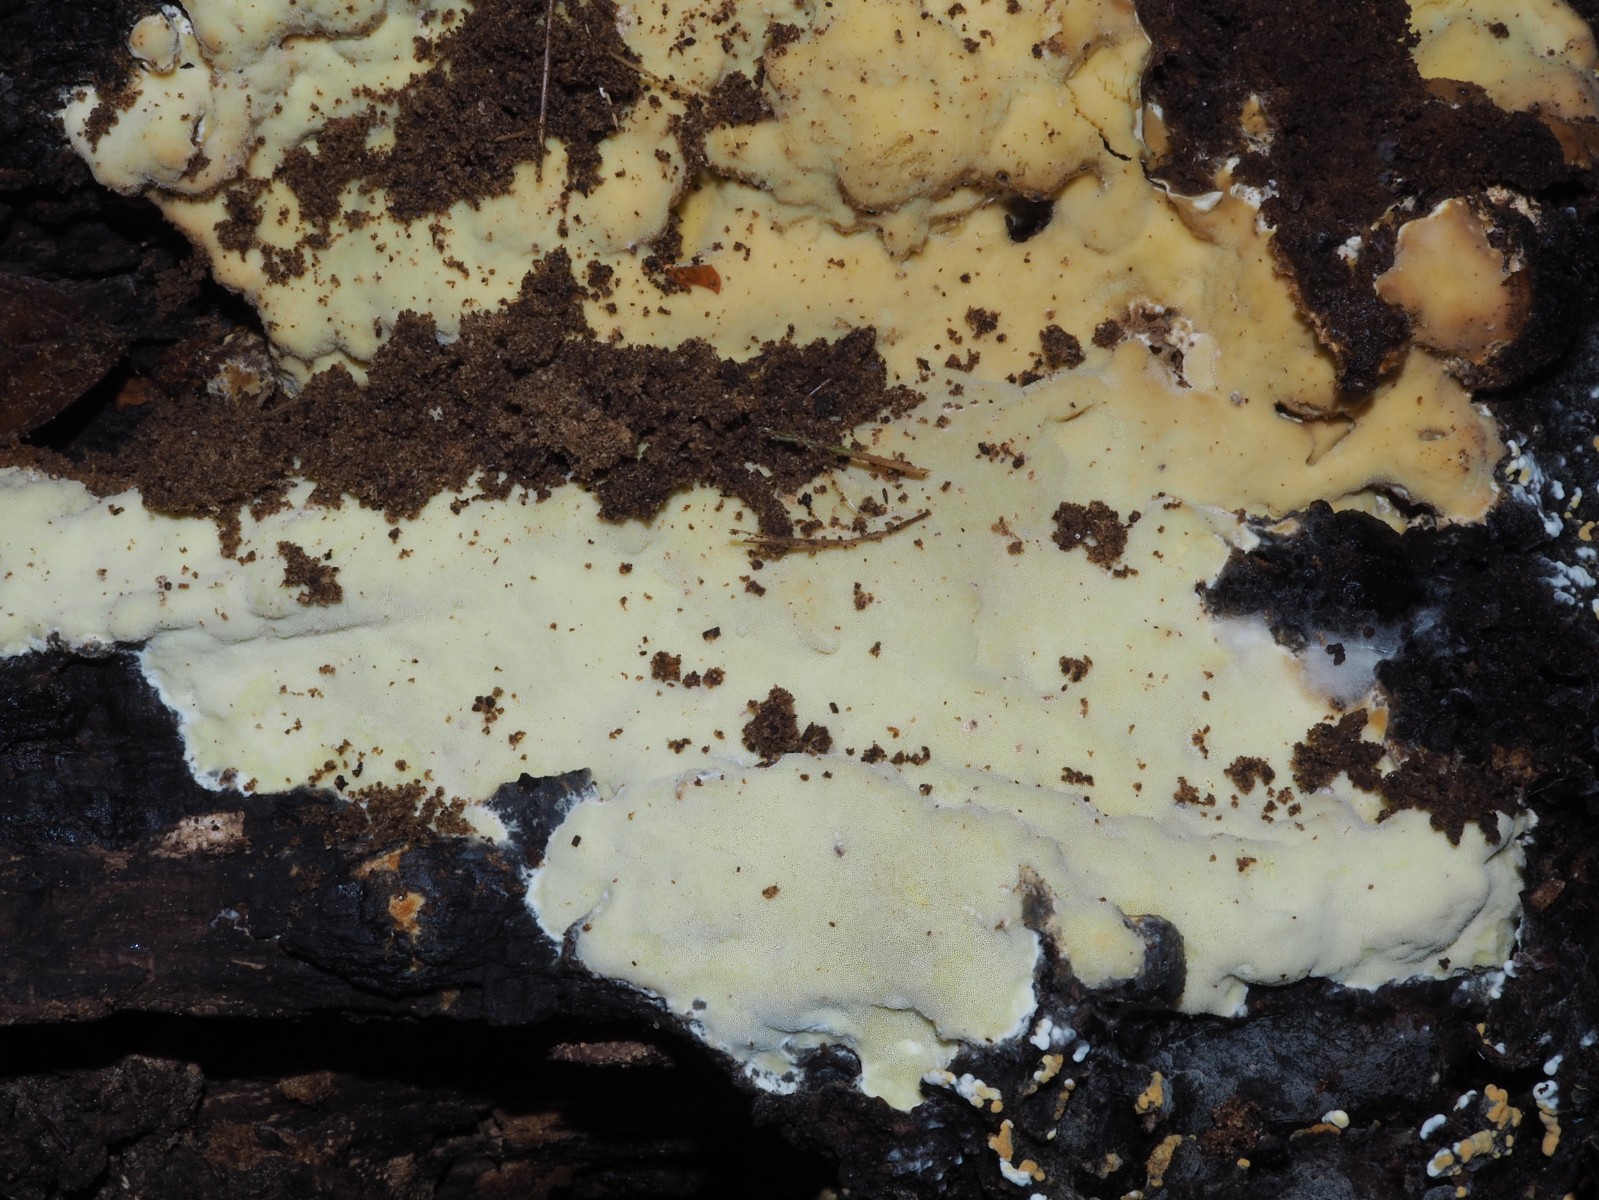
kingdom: Fungi
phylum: Basidiomycota
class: Agaricomycetes
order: Polyporales
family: Irpicaceae
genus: Gloeoporus
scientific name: Gloeoporus pannocinctus
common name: grøngul foldporesvamp
